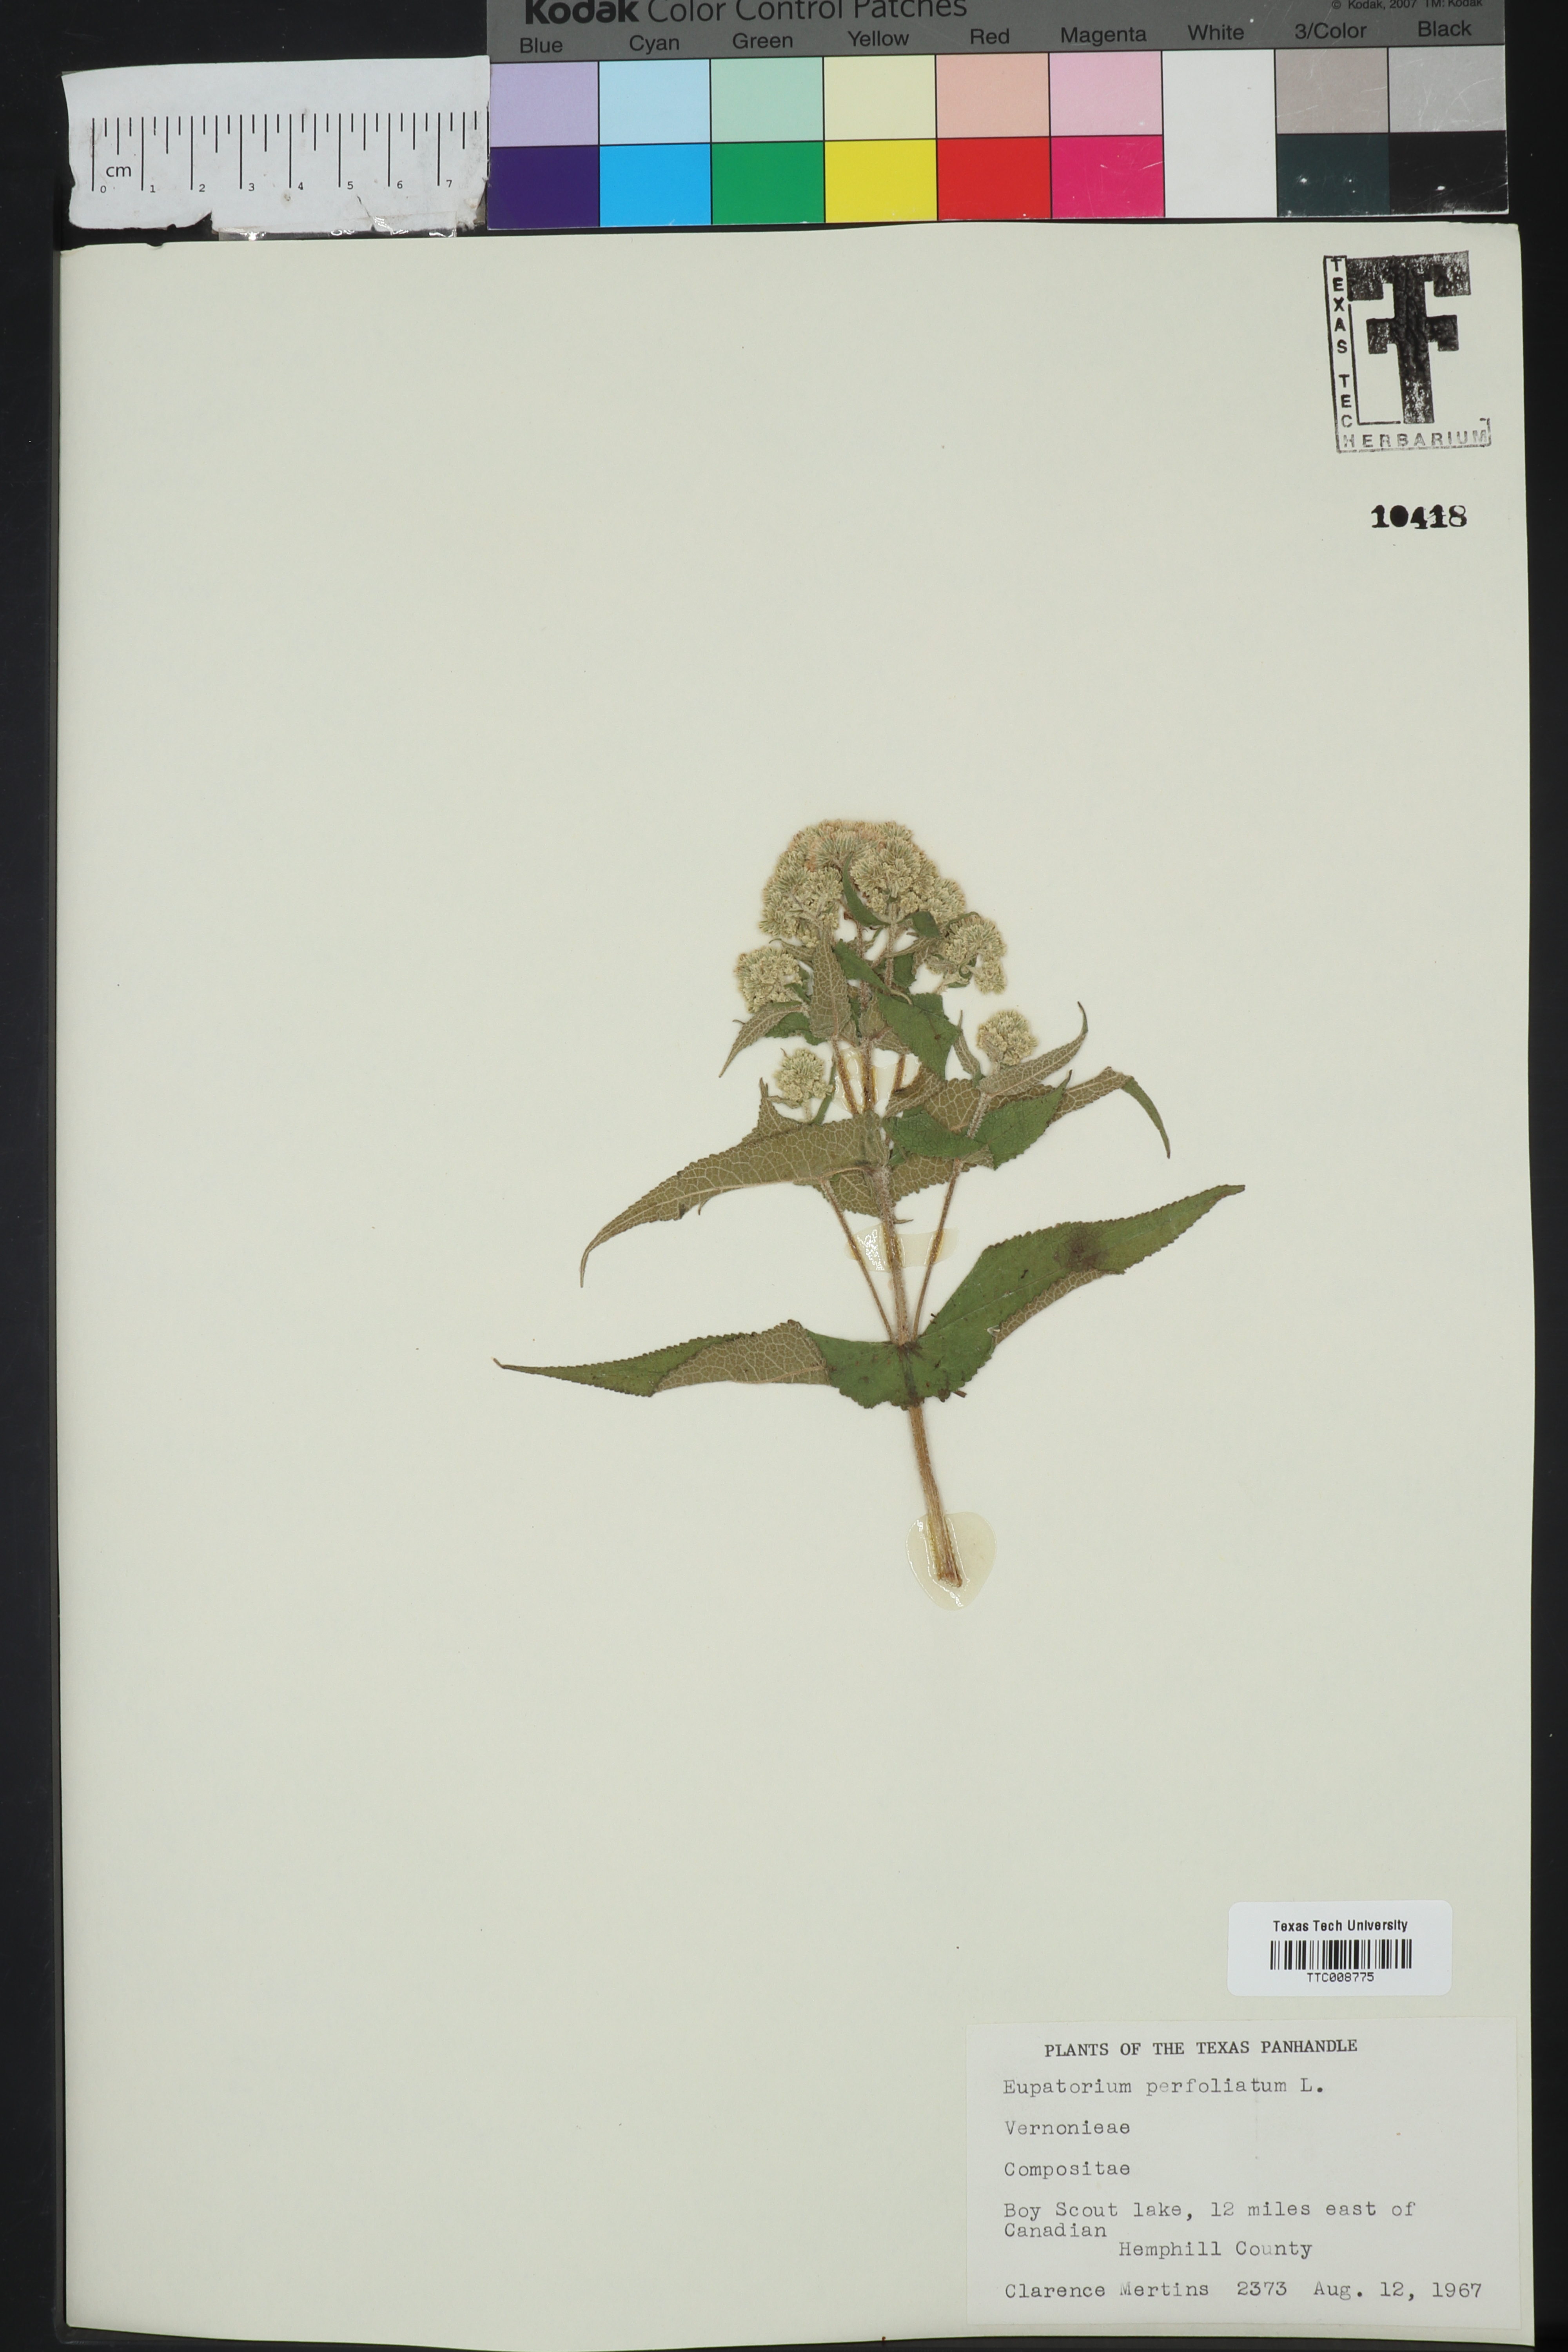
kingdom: Plantae
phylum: Tracheophyta
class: Magnoliopsida
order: Asterales
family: Asteraceae
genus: Eupatorium
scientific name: Eupatorium perfoliatum
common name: Boneset
